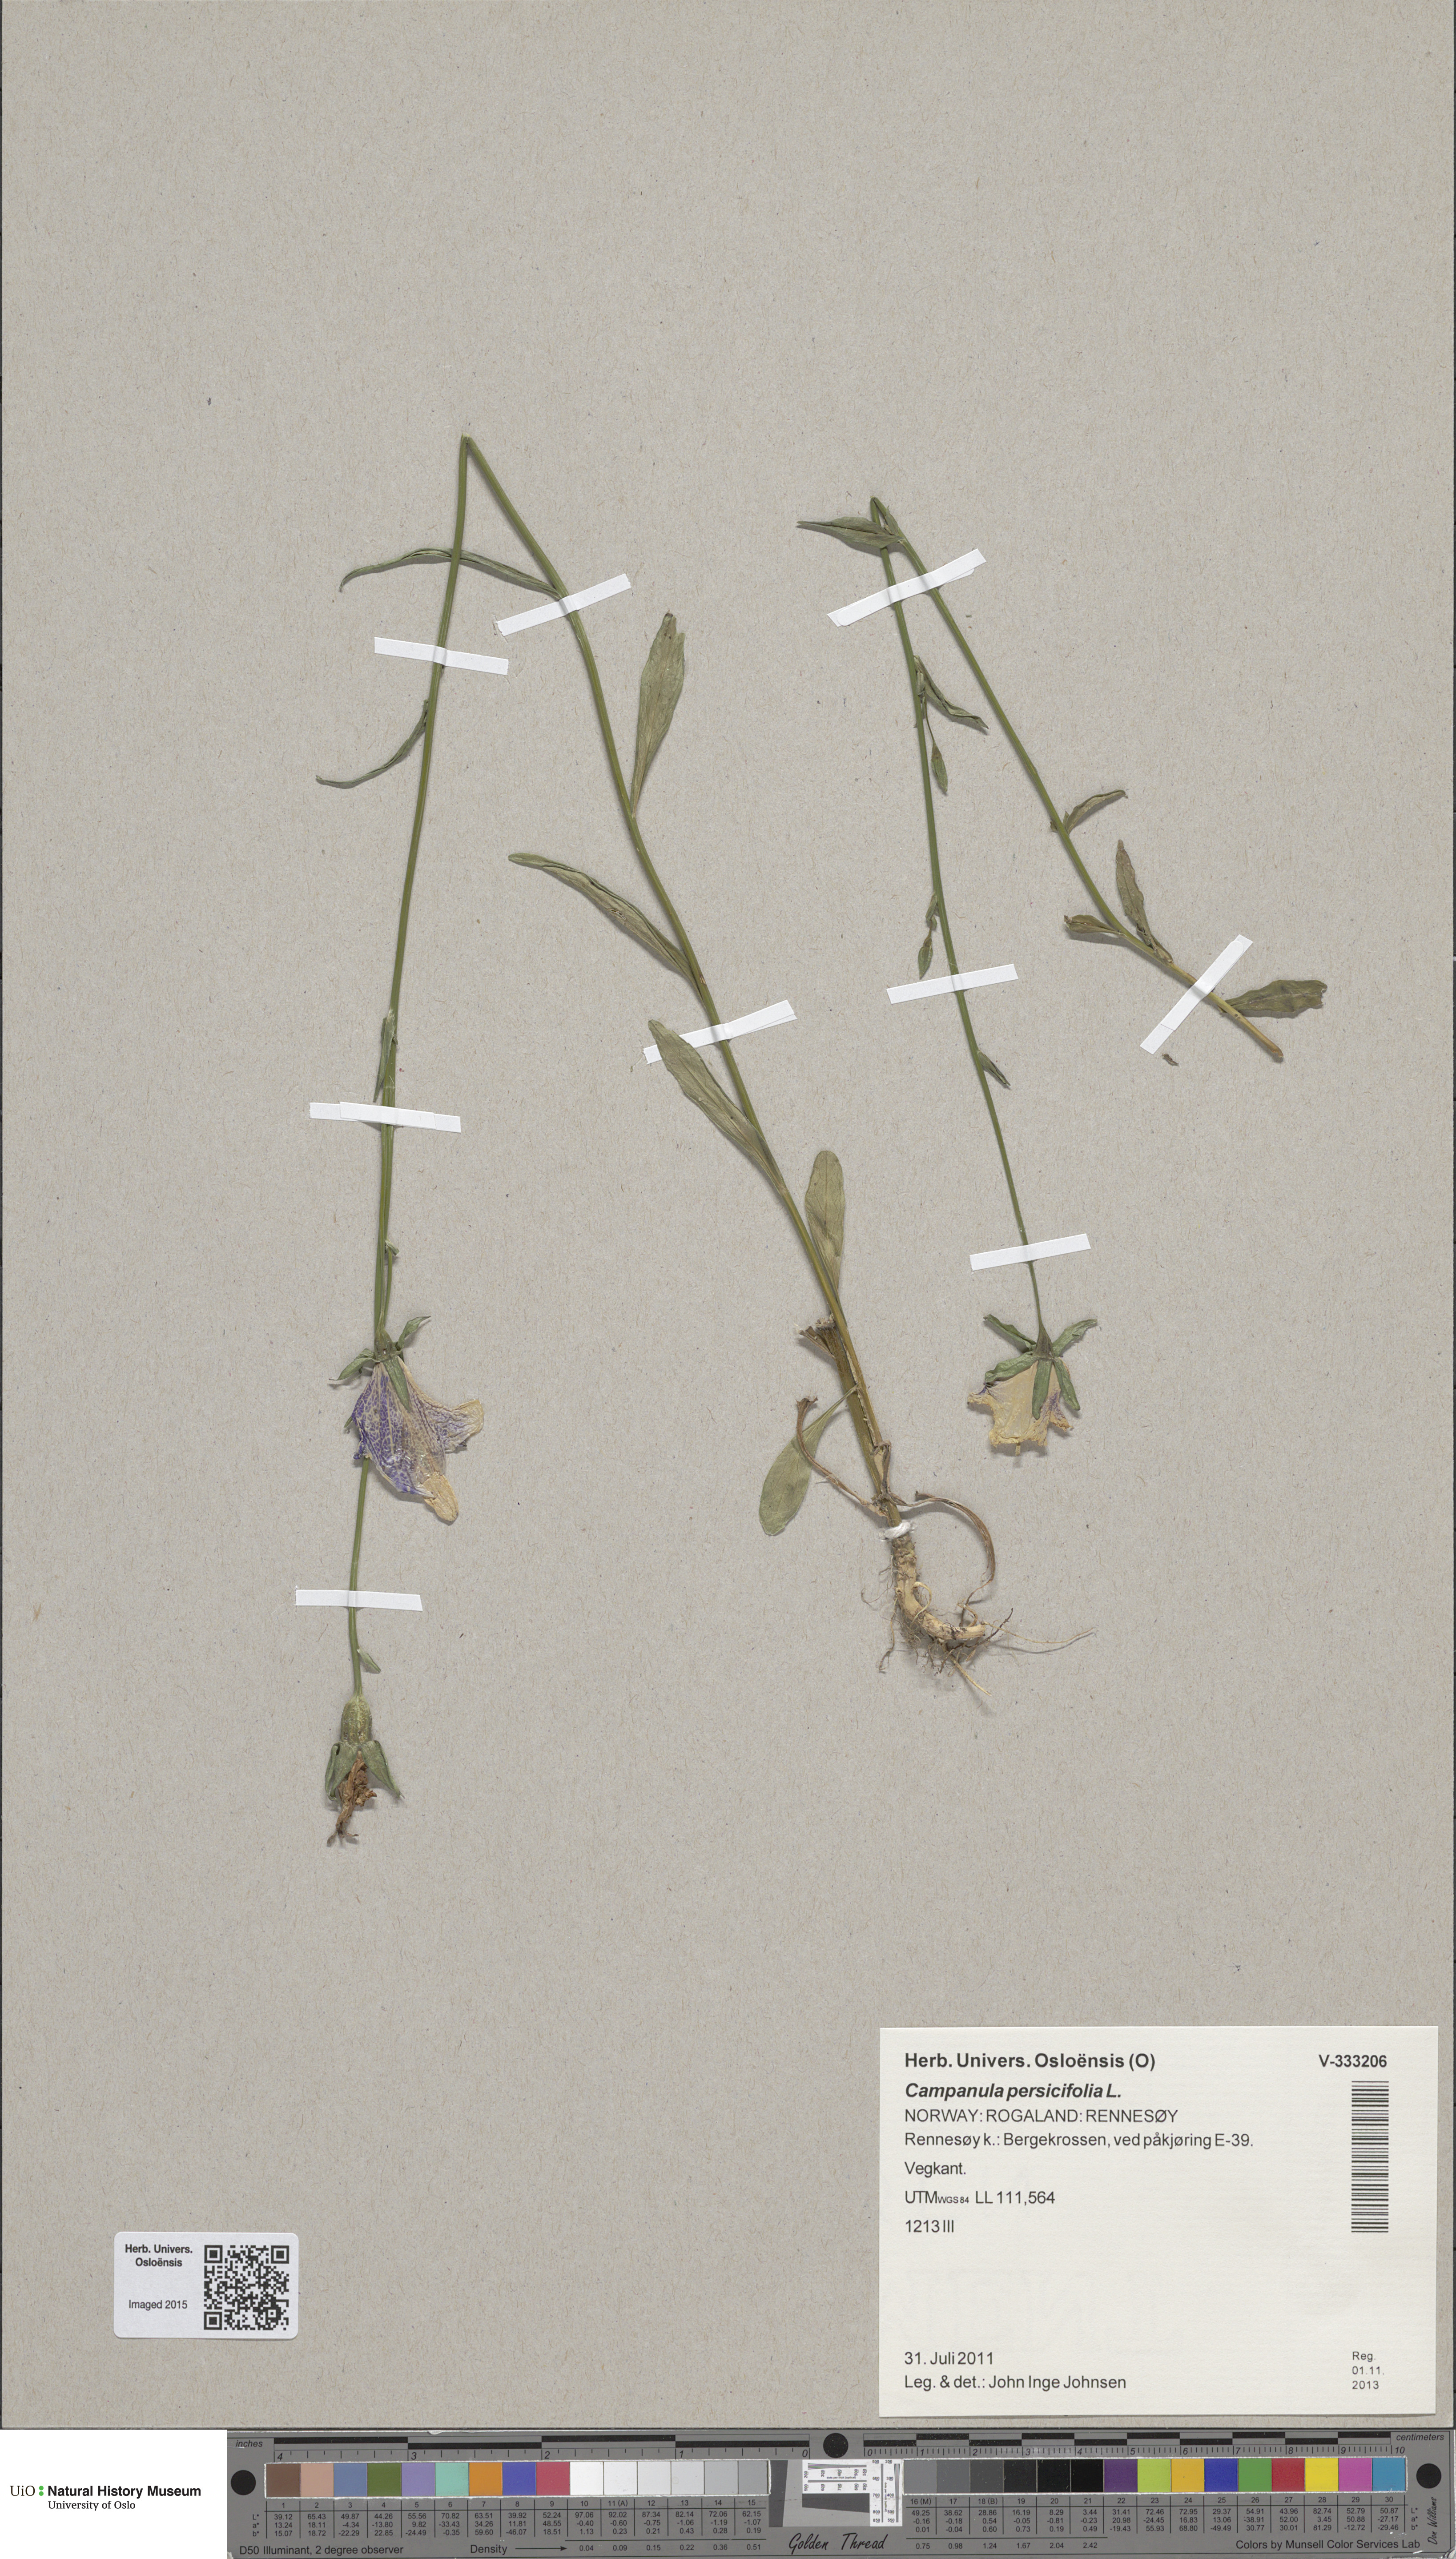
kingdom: Plantae
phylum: Tracheophyta
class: Magnoliopsida
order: Asterales
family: Campanulaceae
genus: Campanula
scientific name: Campanula persicifolia
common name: Peach-leaved bellflower
